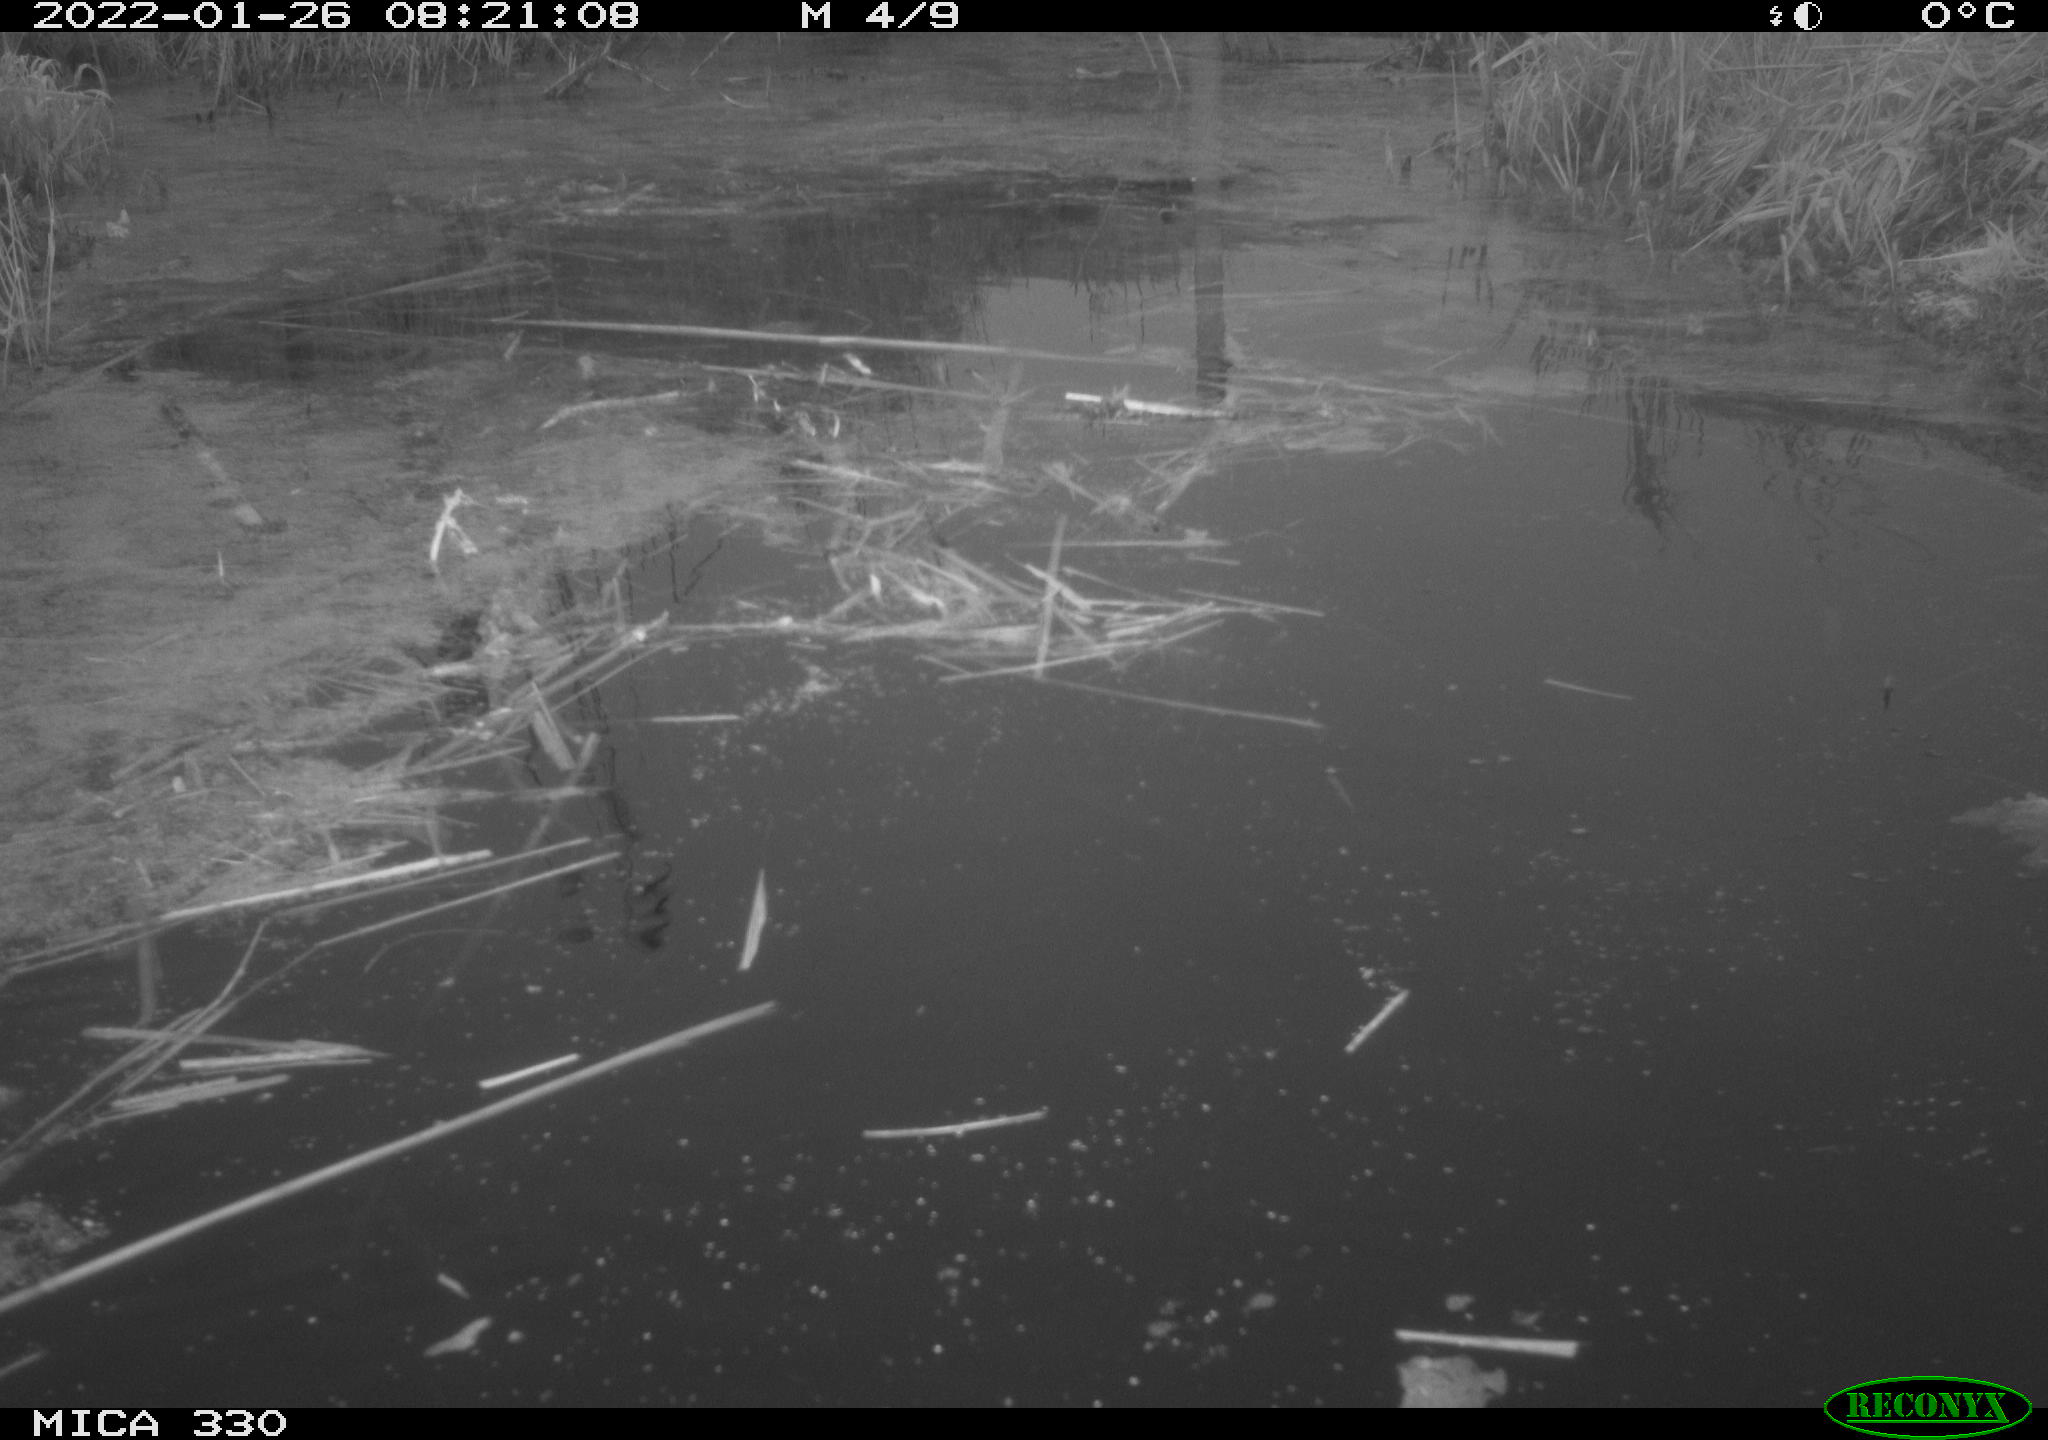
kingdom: Animalia
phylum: Chordata
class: Aves
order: Gruiformes
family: Rallidae
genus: Gallinula
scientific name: Gallinula chloropus
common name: Common moorhen
